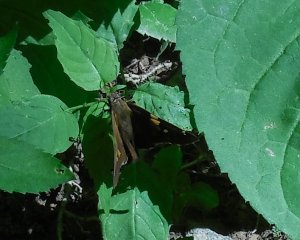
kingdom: Animalia
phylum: Arthropoda
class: Insecta
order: Lepidoptera
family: Hesperiidae
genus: Epargyreus
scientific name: Epargyreus clarus
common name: Silver-spotted Skipper
